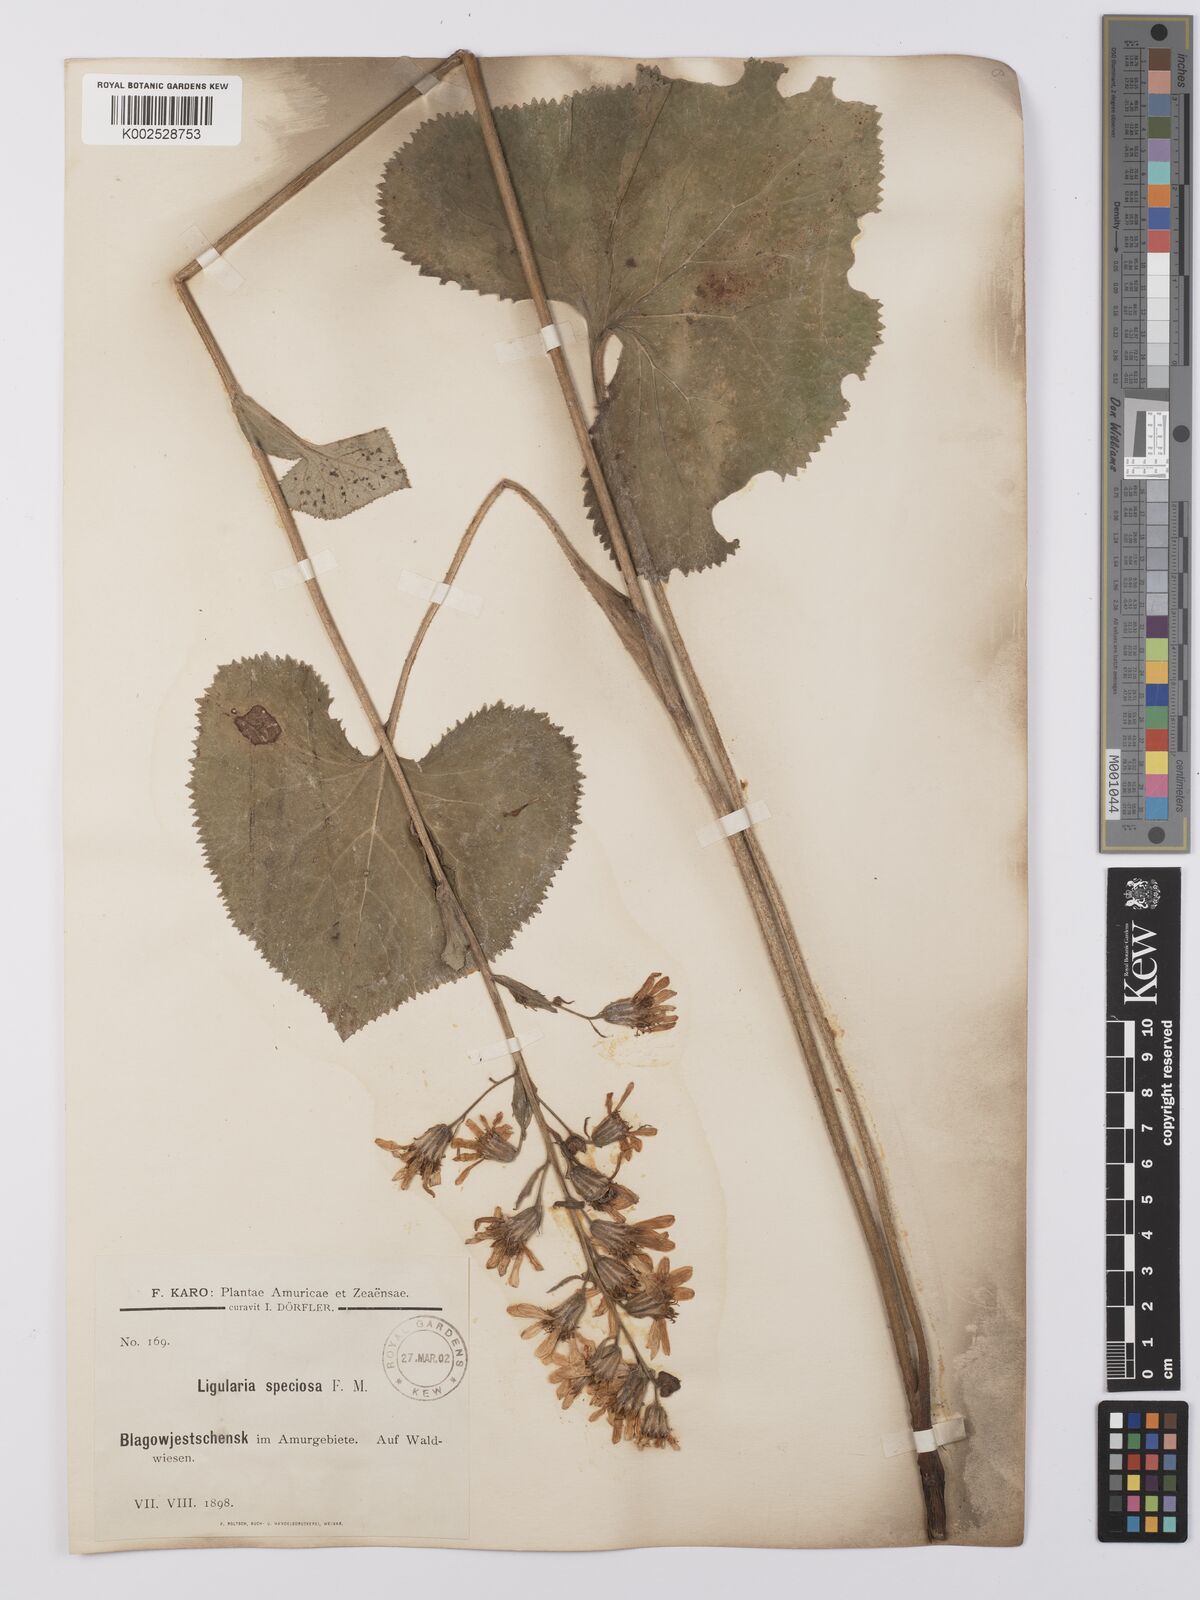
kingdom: Plantae
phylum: Tracheophyta
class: Magnoliopsida
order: Asterales
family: Asteraceae
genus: Ligularia
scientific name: Ligularia fischeri
